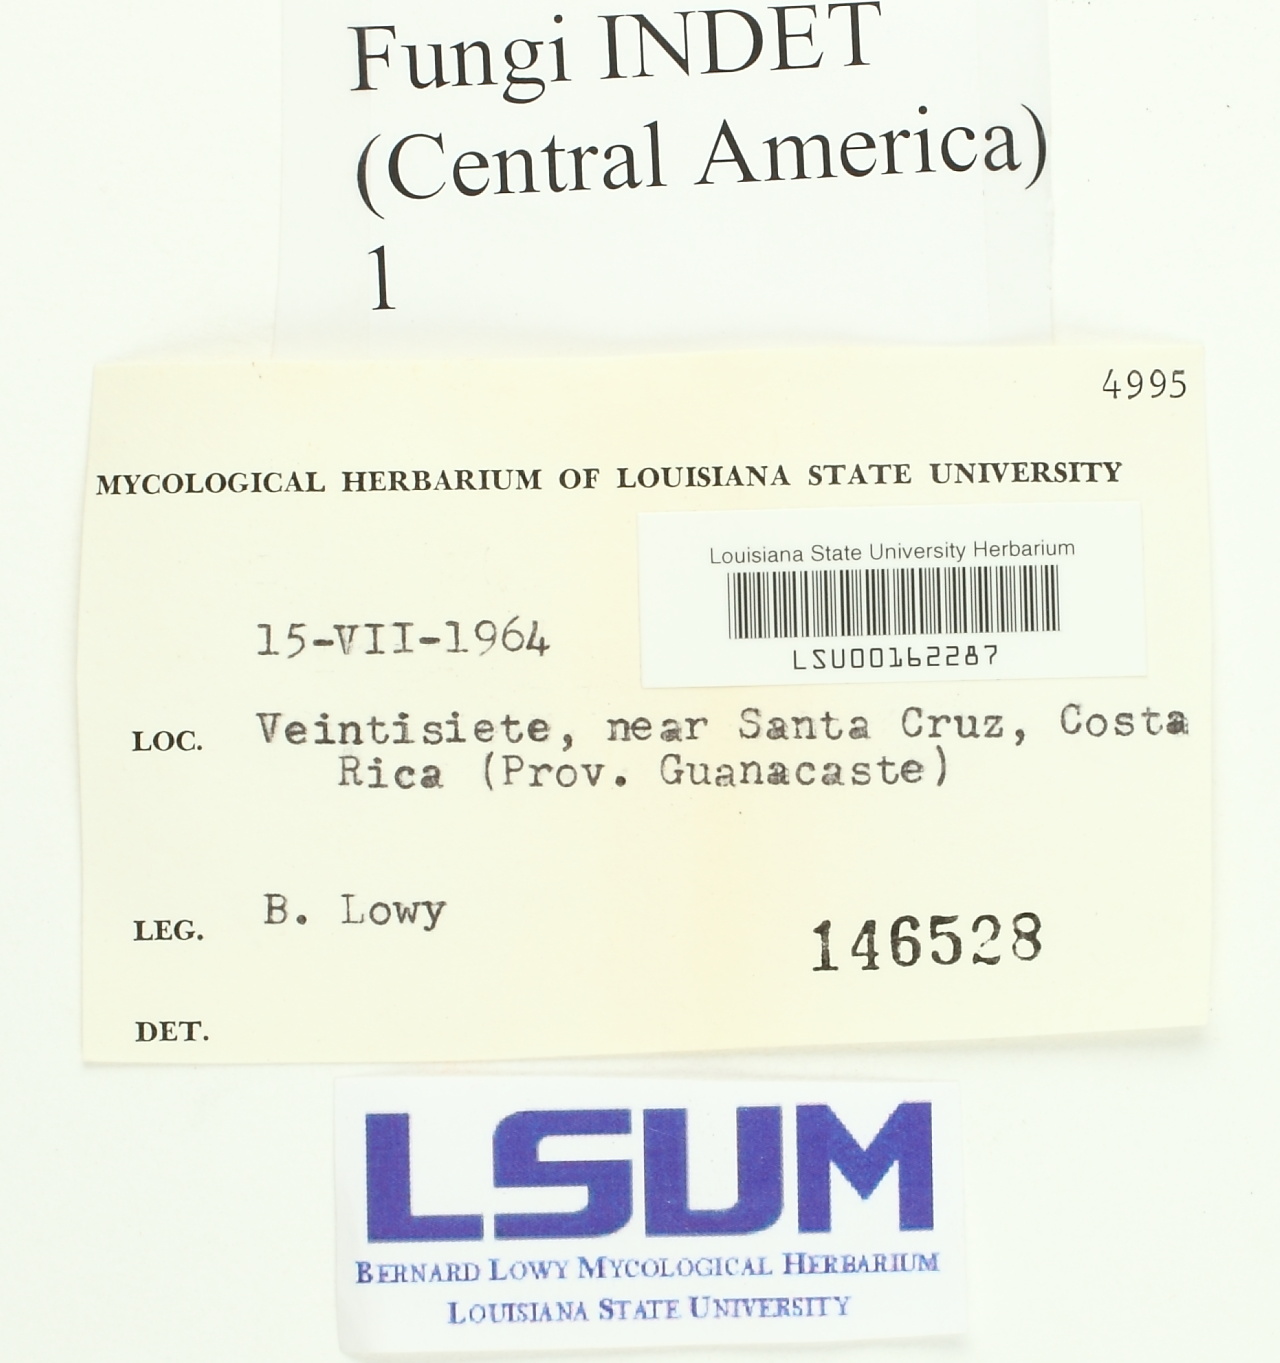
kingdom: Fungi
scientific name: Fungi
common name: Fungi
